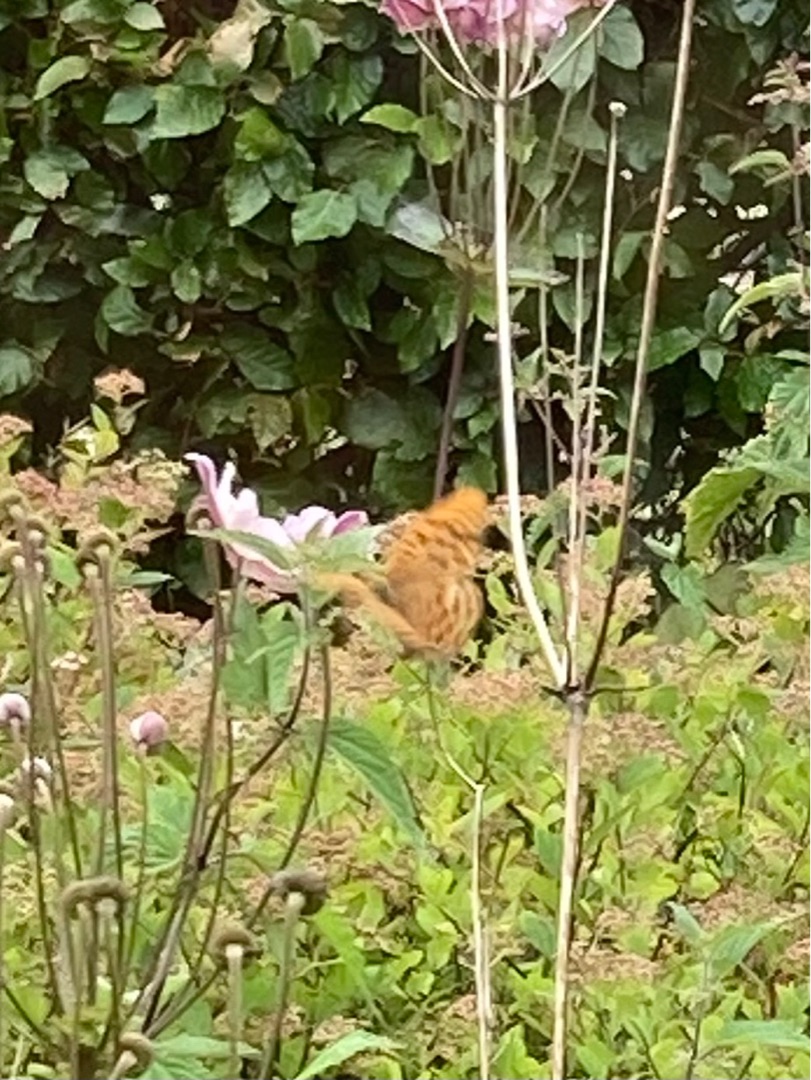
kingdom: Animalia
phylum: Arthropoda
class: Insecta
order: Lepidoptera
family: Nymphalidae
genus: Argynnis
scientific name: Argynnis paphia
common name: Kejserkåbe
